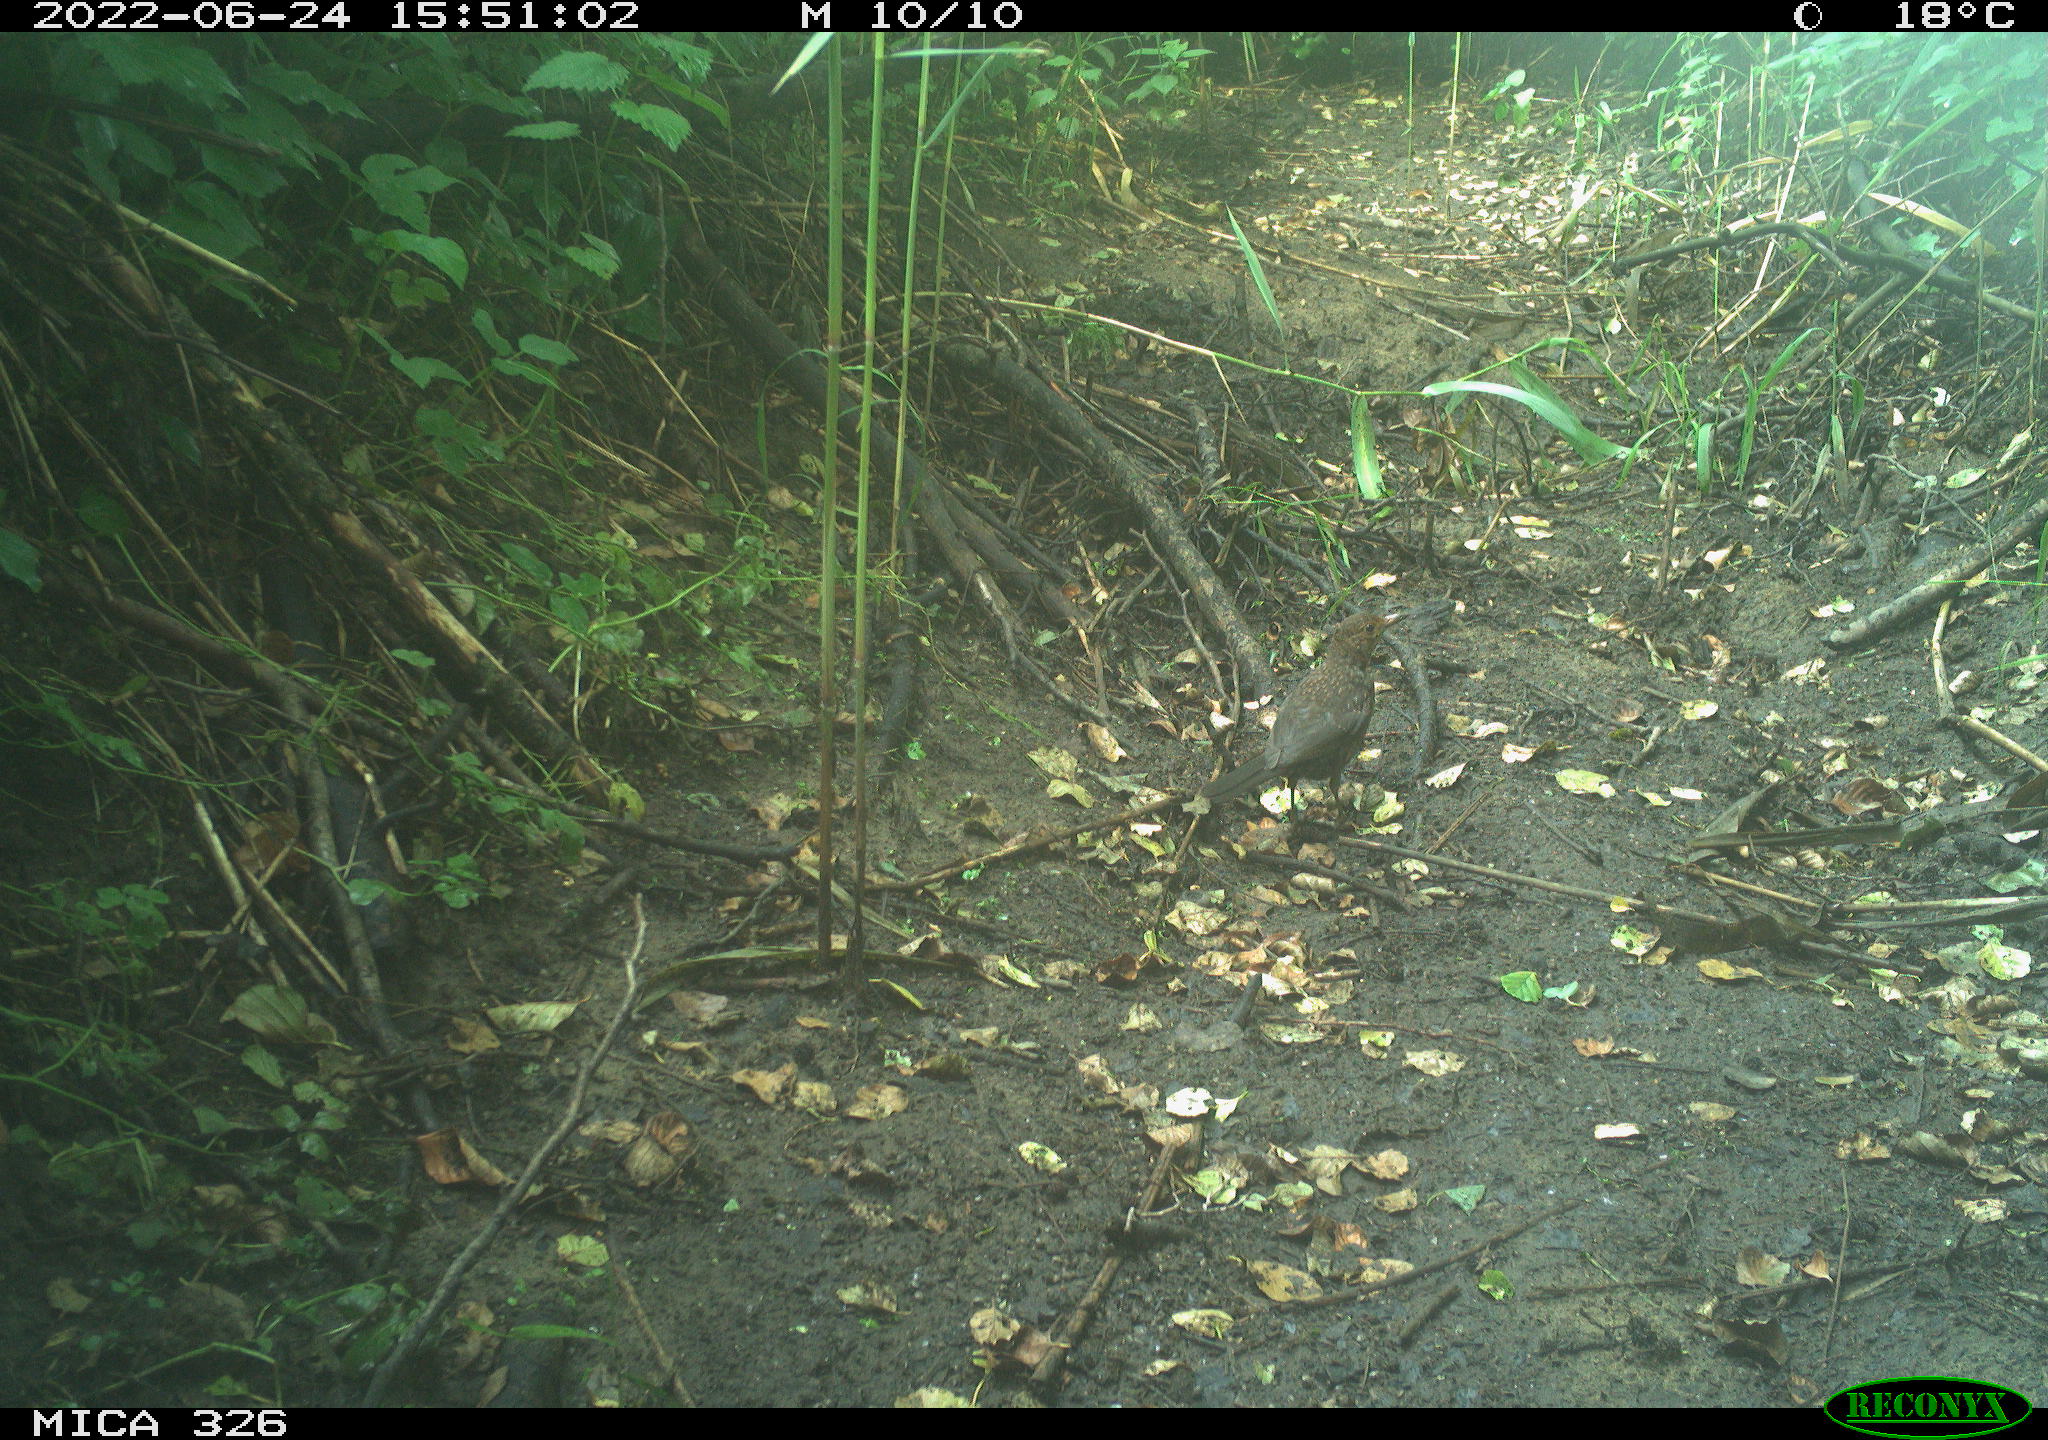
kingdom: Animalia
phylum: Chordata
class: Aves
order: Passeriformes
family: Turdidae
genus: Turdus
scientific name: Turdus merula
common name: Common blackbird
